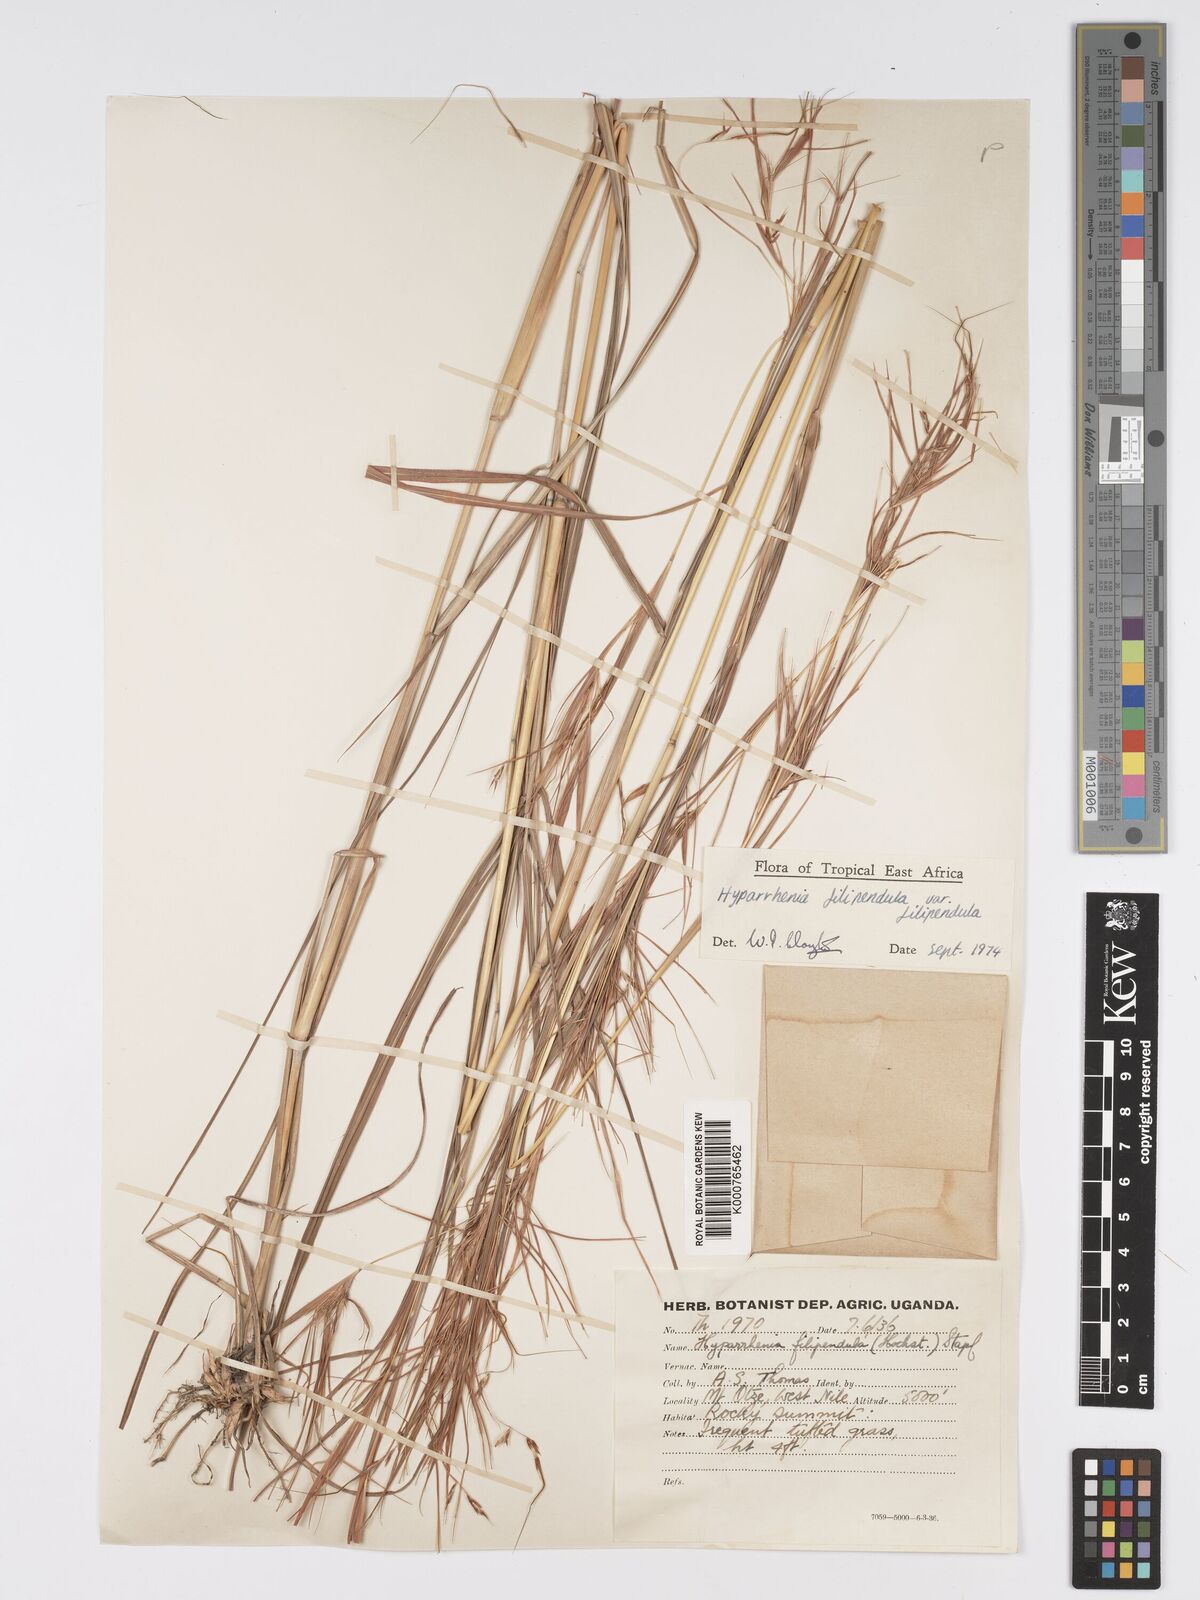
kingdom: Plantae
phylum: Tracheophyta
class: Liliopsida
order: Poales
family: Poaceae
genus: Hyparrhenia
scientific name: Hyparrhenia filipendula
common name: Tambookie grass
